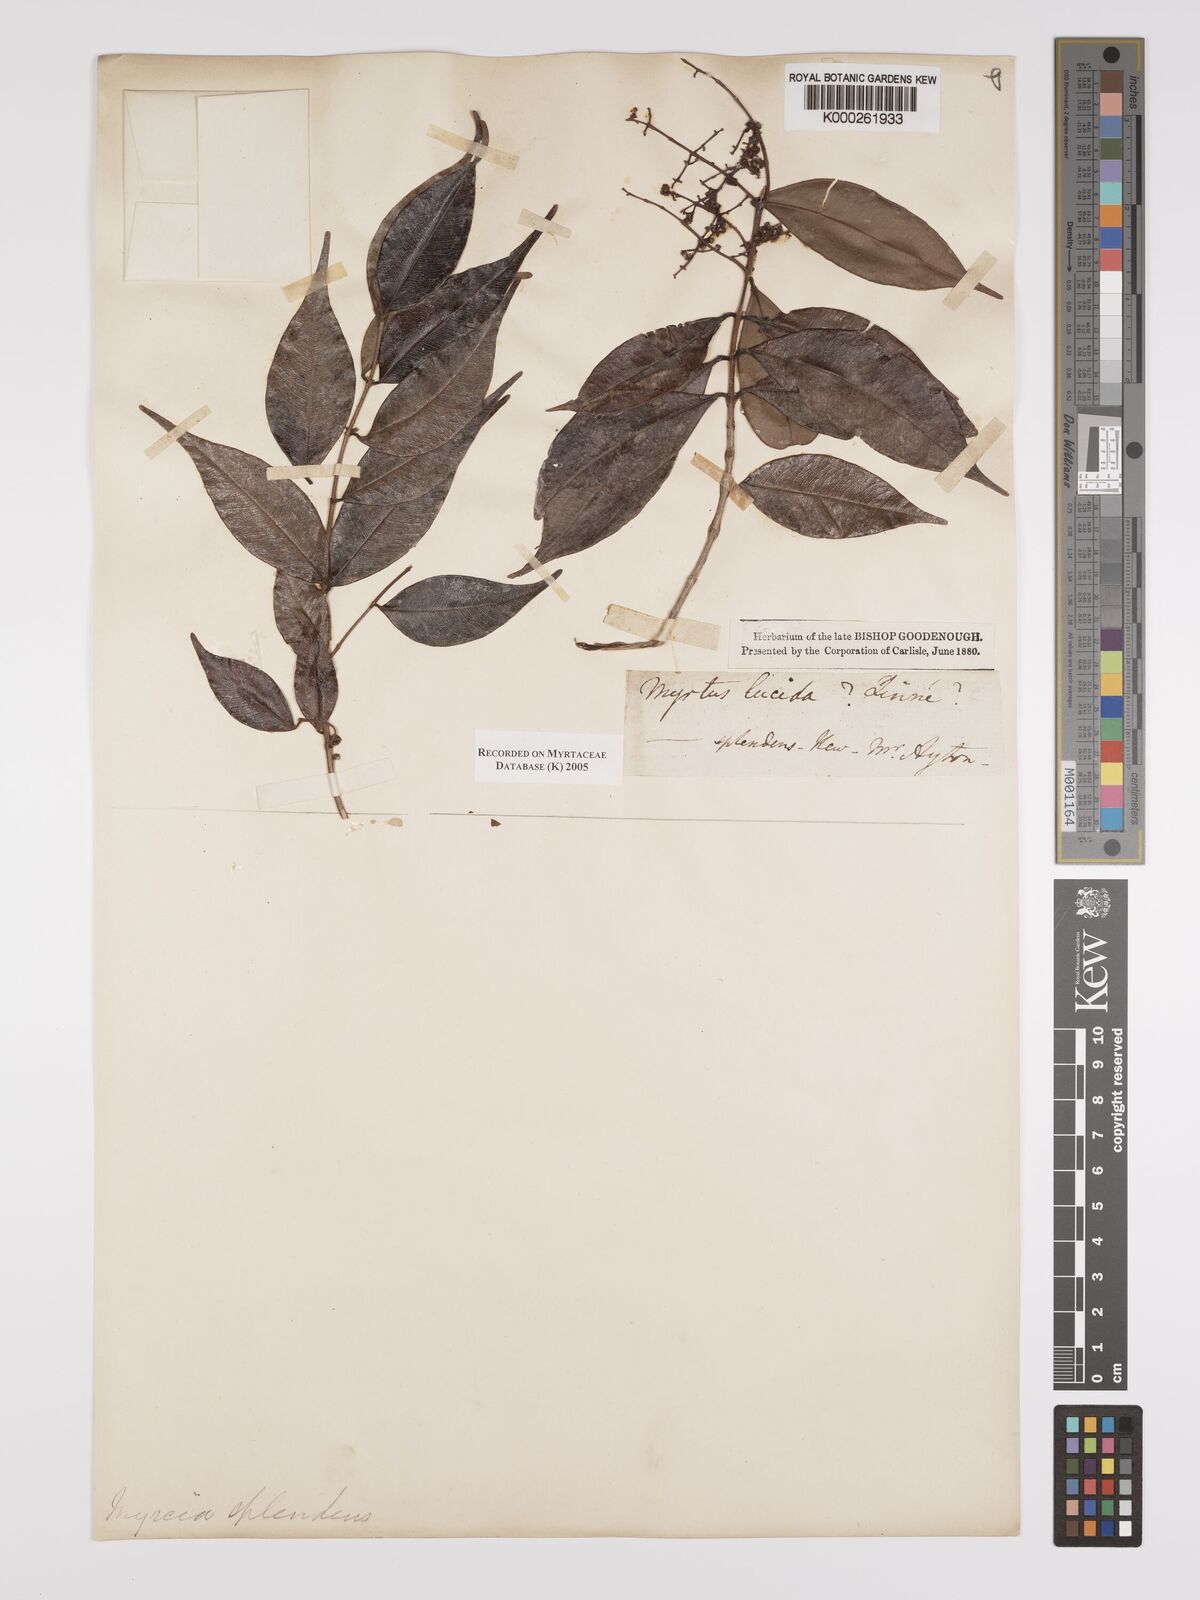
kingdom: Plantae
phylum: Tracheophyta
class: Magnoliopsida
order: Myrtales
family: Myrtaceae
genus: Myrcia
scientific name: Myrcia splendens
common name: Surinam cherry
